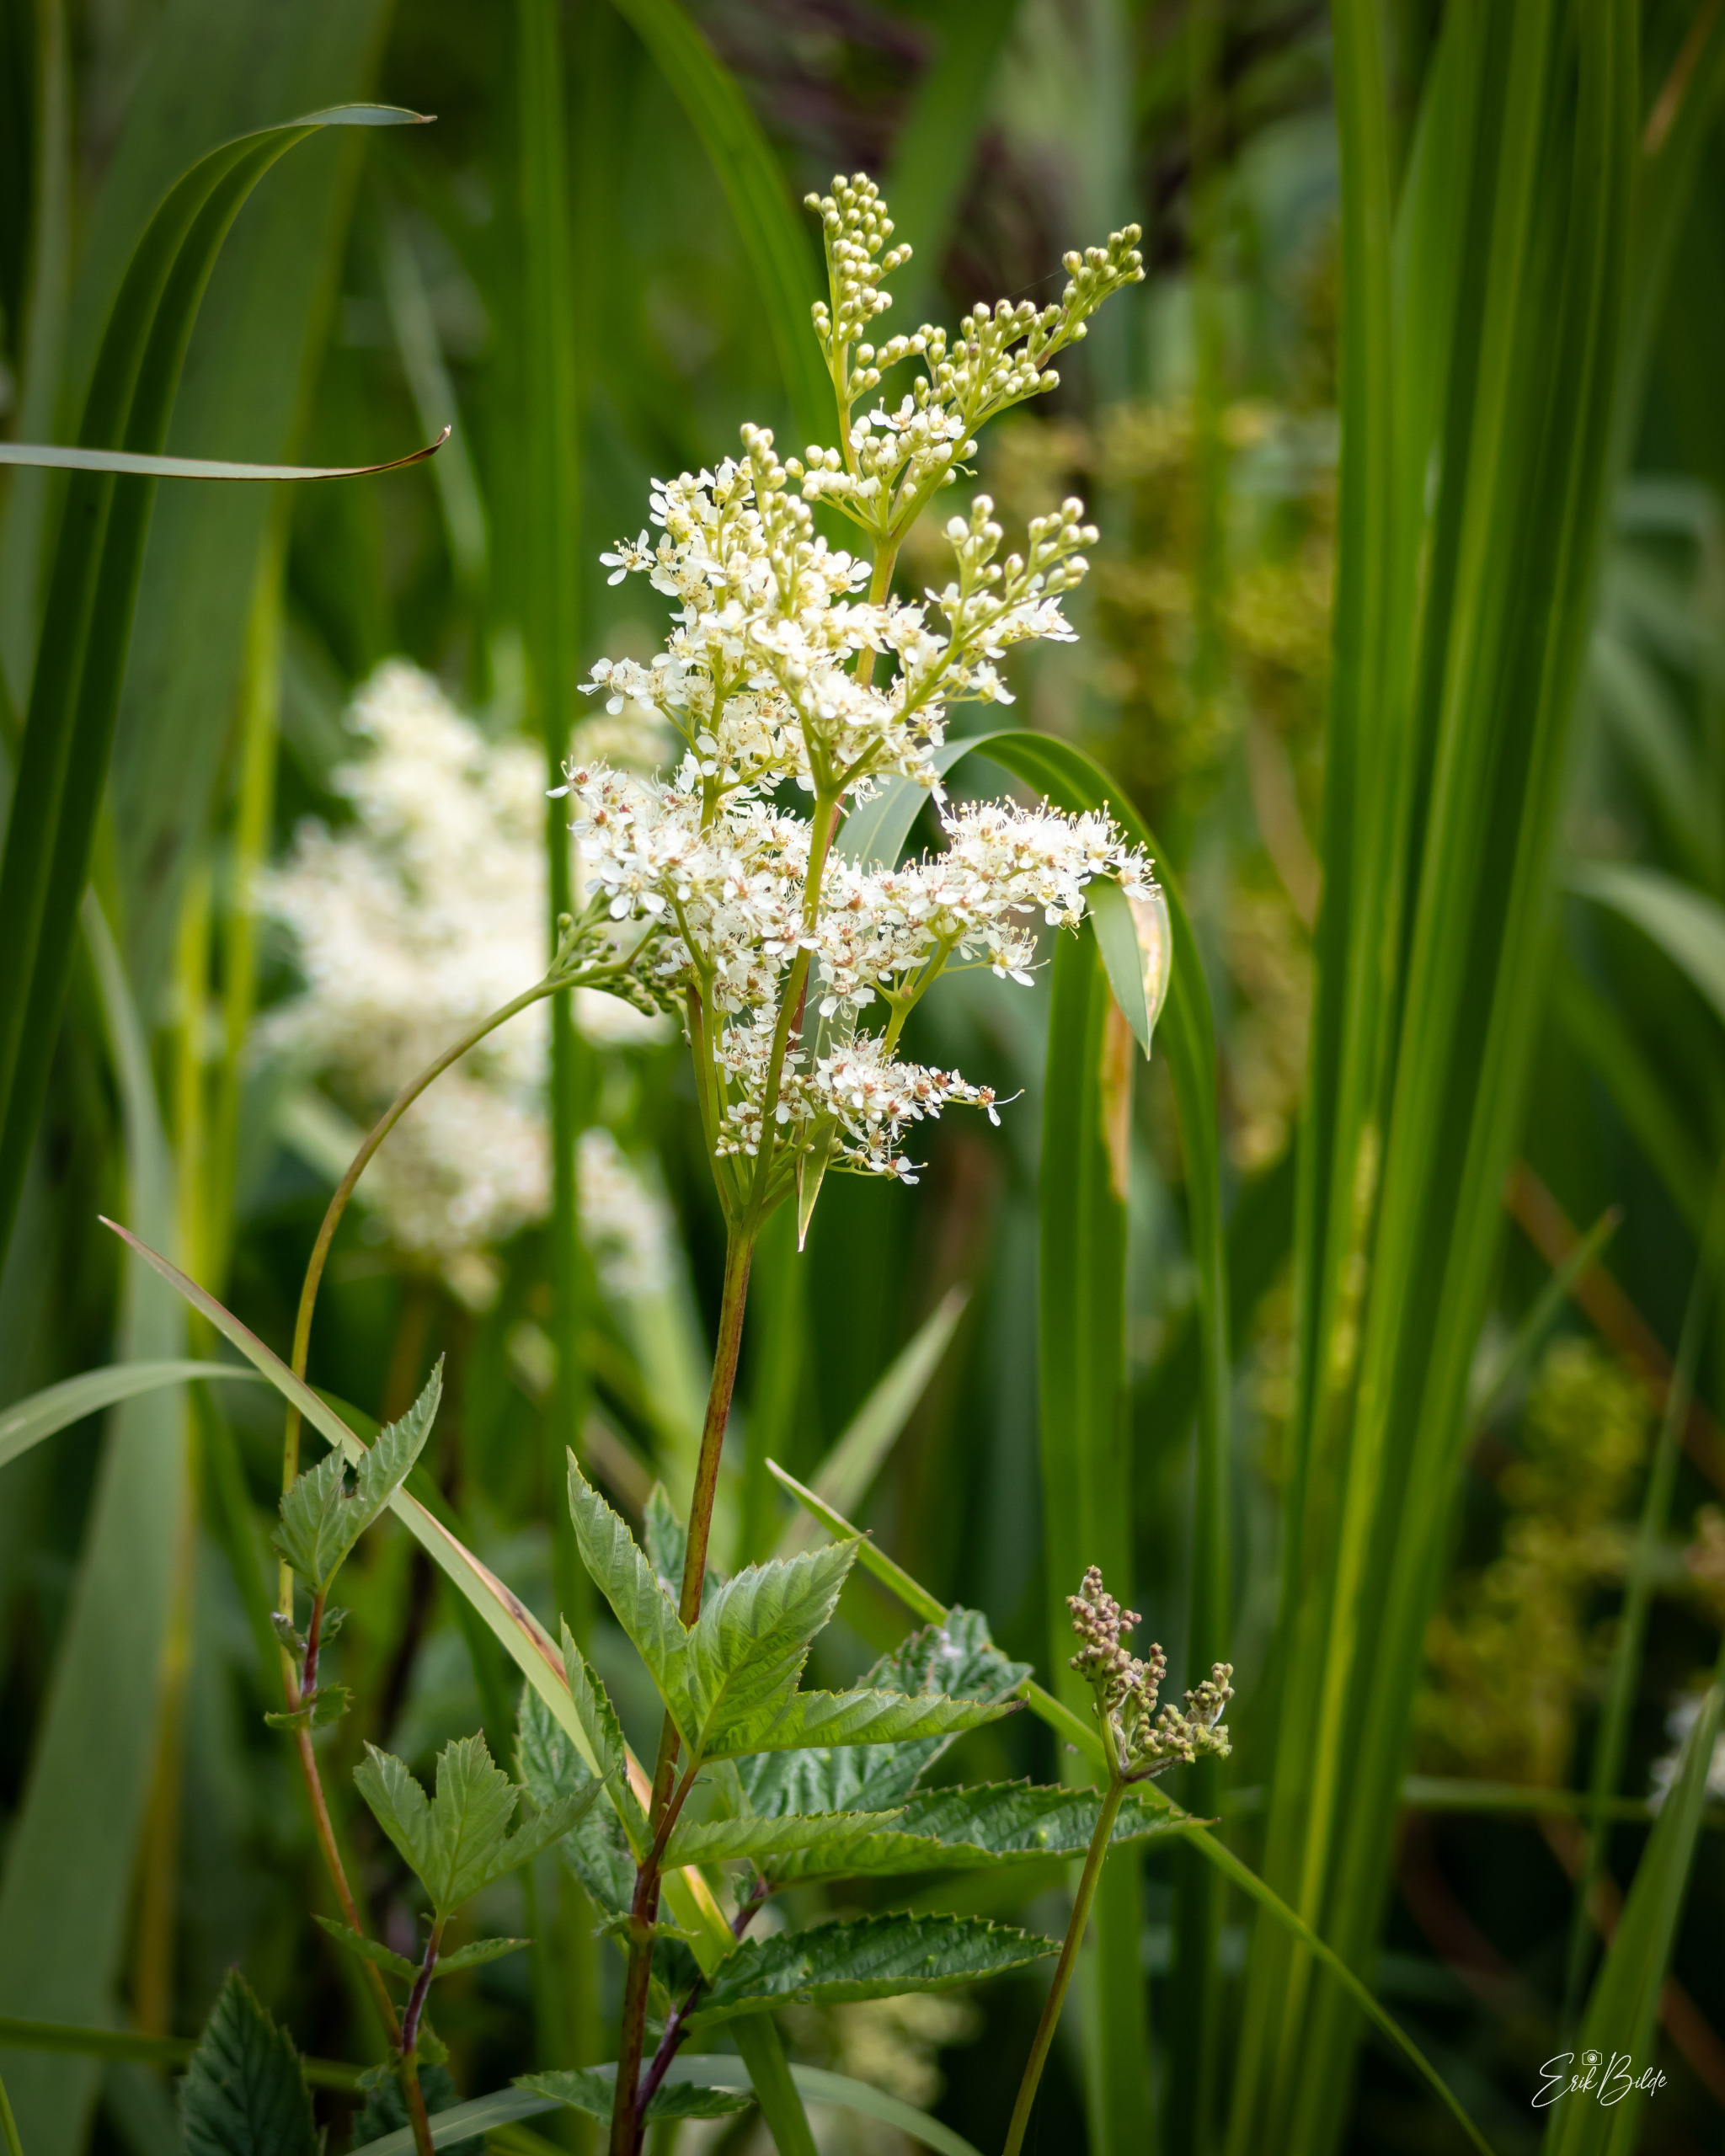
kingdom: Plantae
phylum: Tracheophyta
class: Magnoliopsida
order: Rosales
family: Rosaceae
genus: Filipendula
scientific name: Filipendula ulmaria
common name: Almindelig mjødurt
